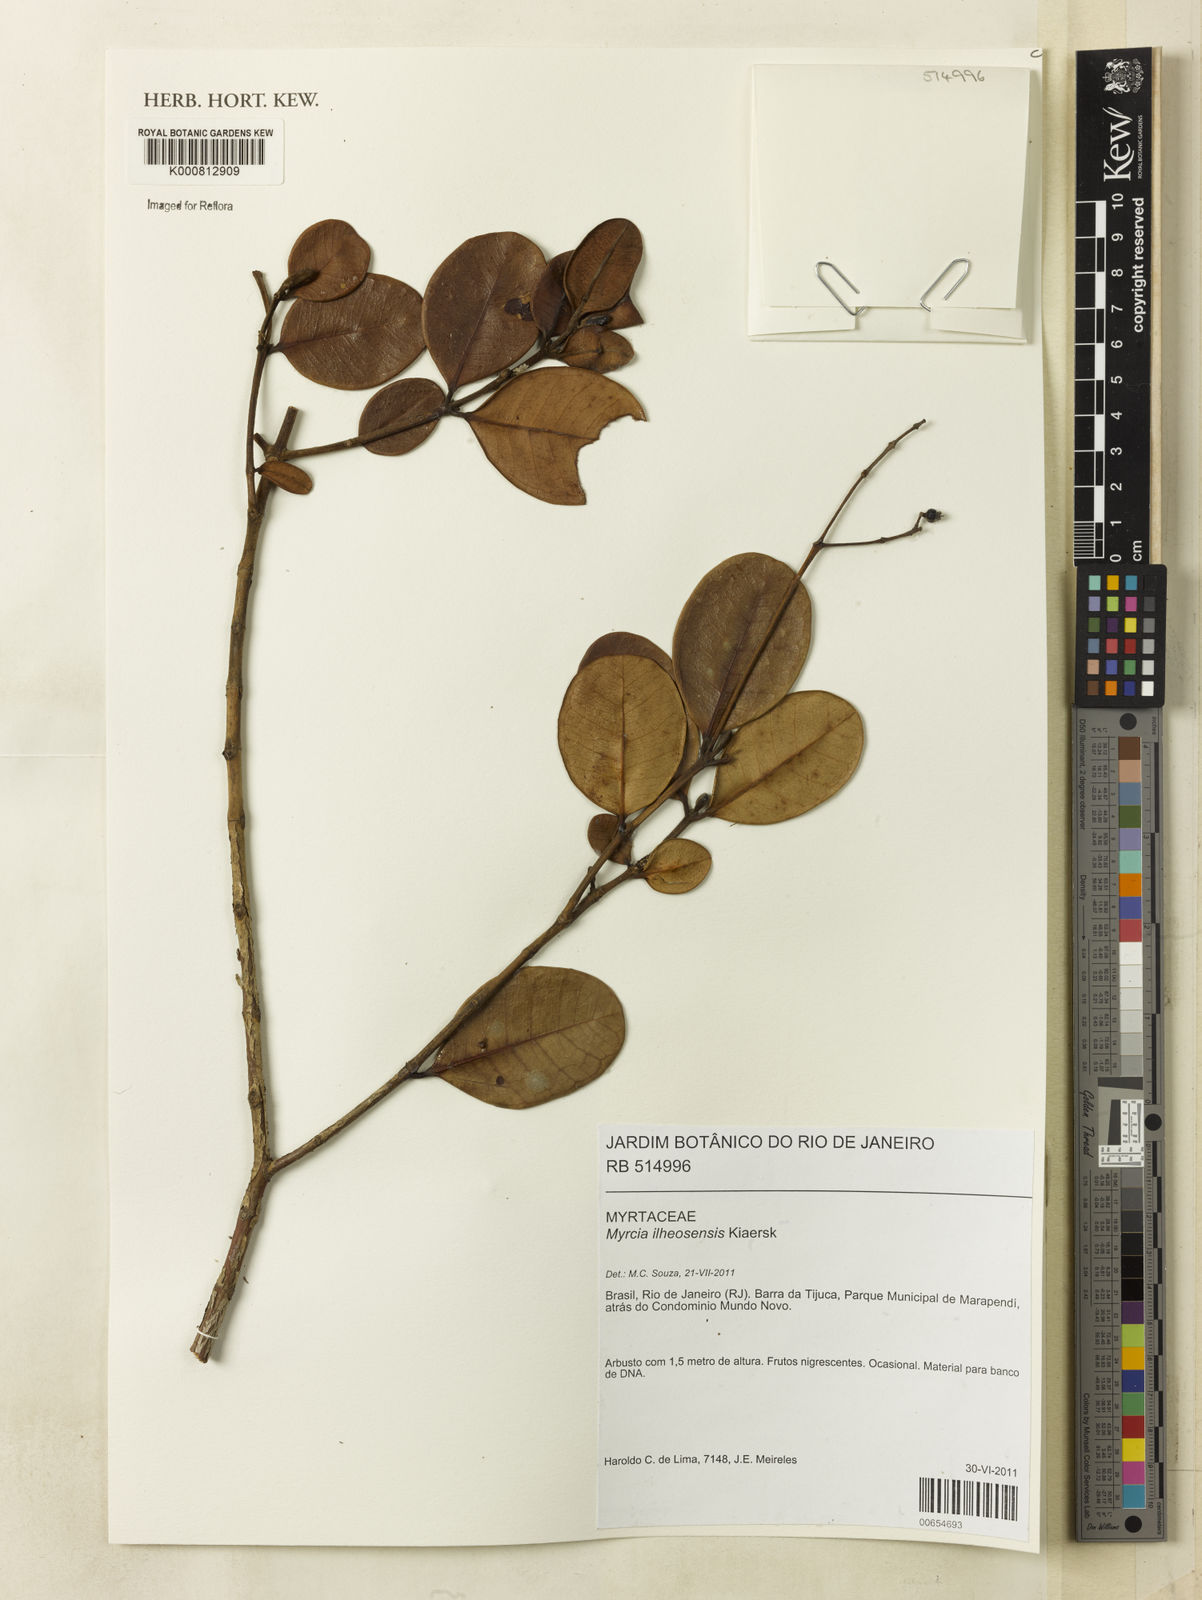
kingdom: Plantae
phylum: Tracheophyta
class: Magnoliopsida
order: Myrtales
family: Myrtaceae
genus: Myrcia
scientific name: Myrcia ilheosensis
